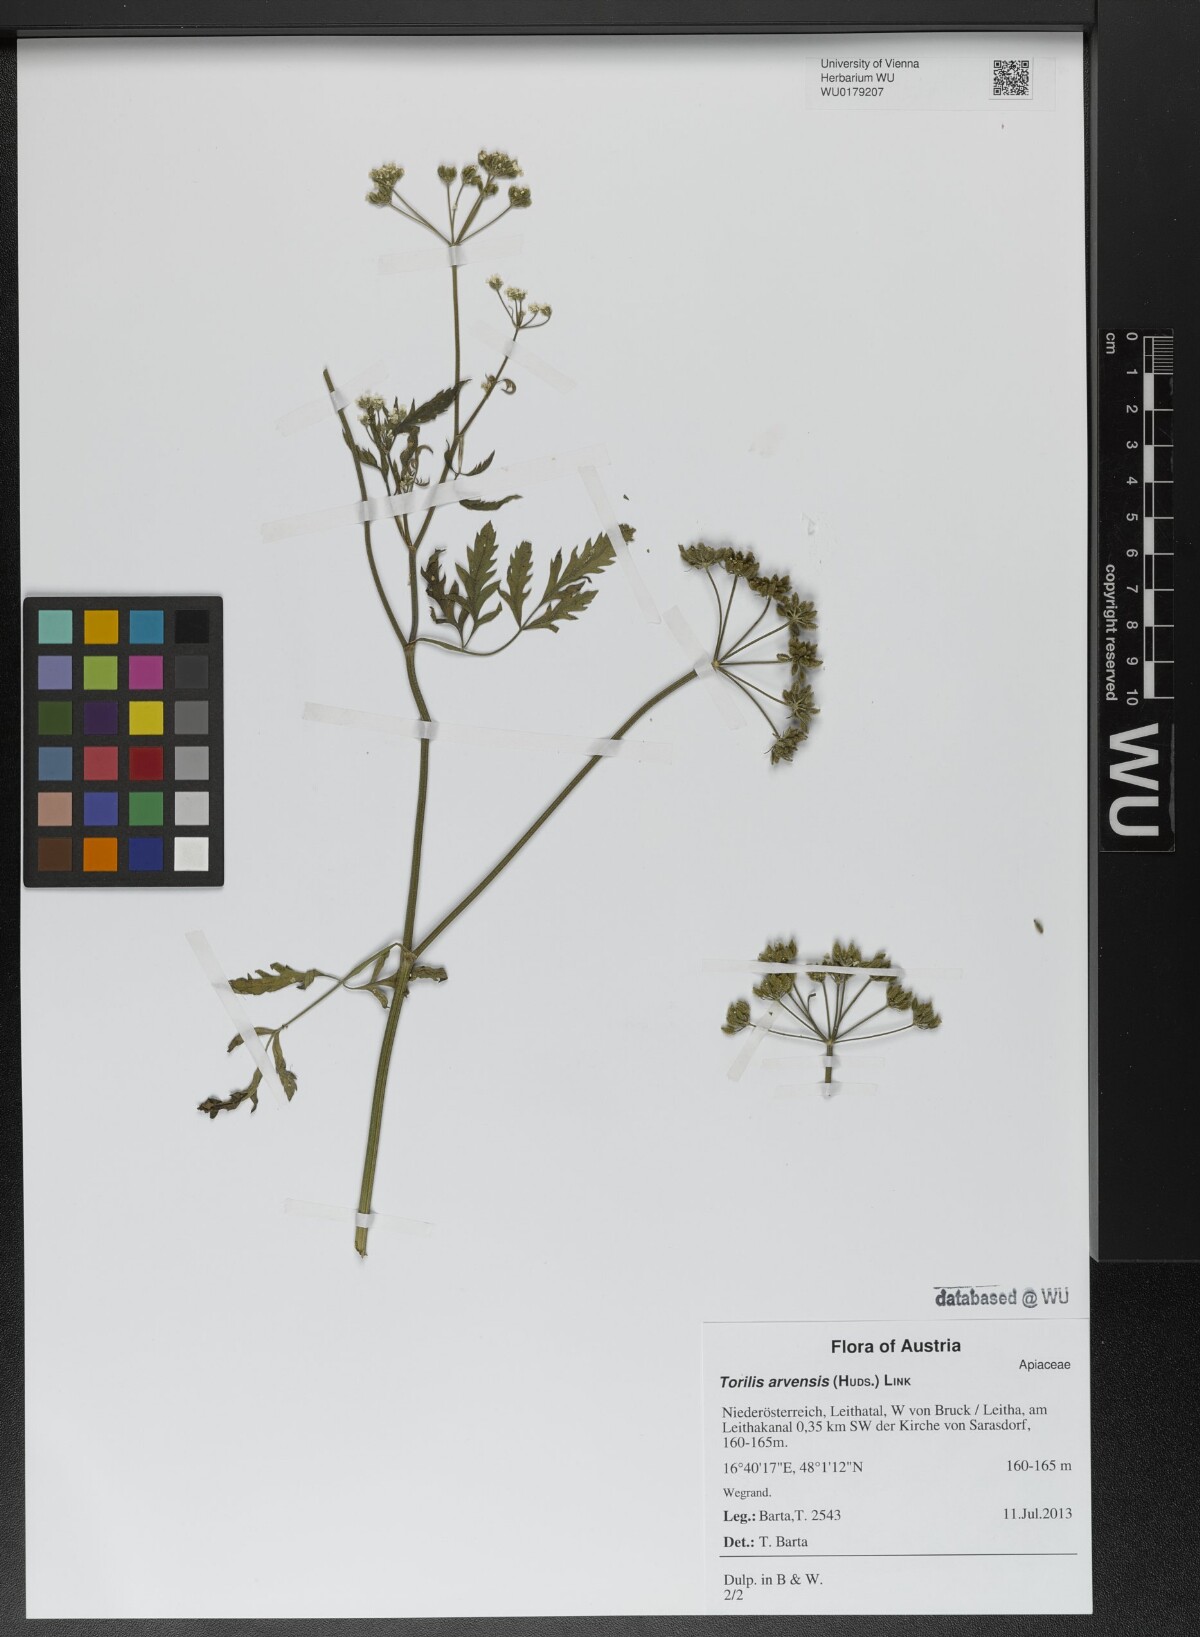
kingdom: Plantae
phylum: Tracheophyta
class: Magnoliopsida
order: Apiales
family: Apiaceae
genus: Torilis
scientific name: Torilis arvensis
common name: Spreading hedge-parsley
